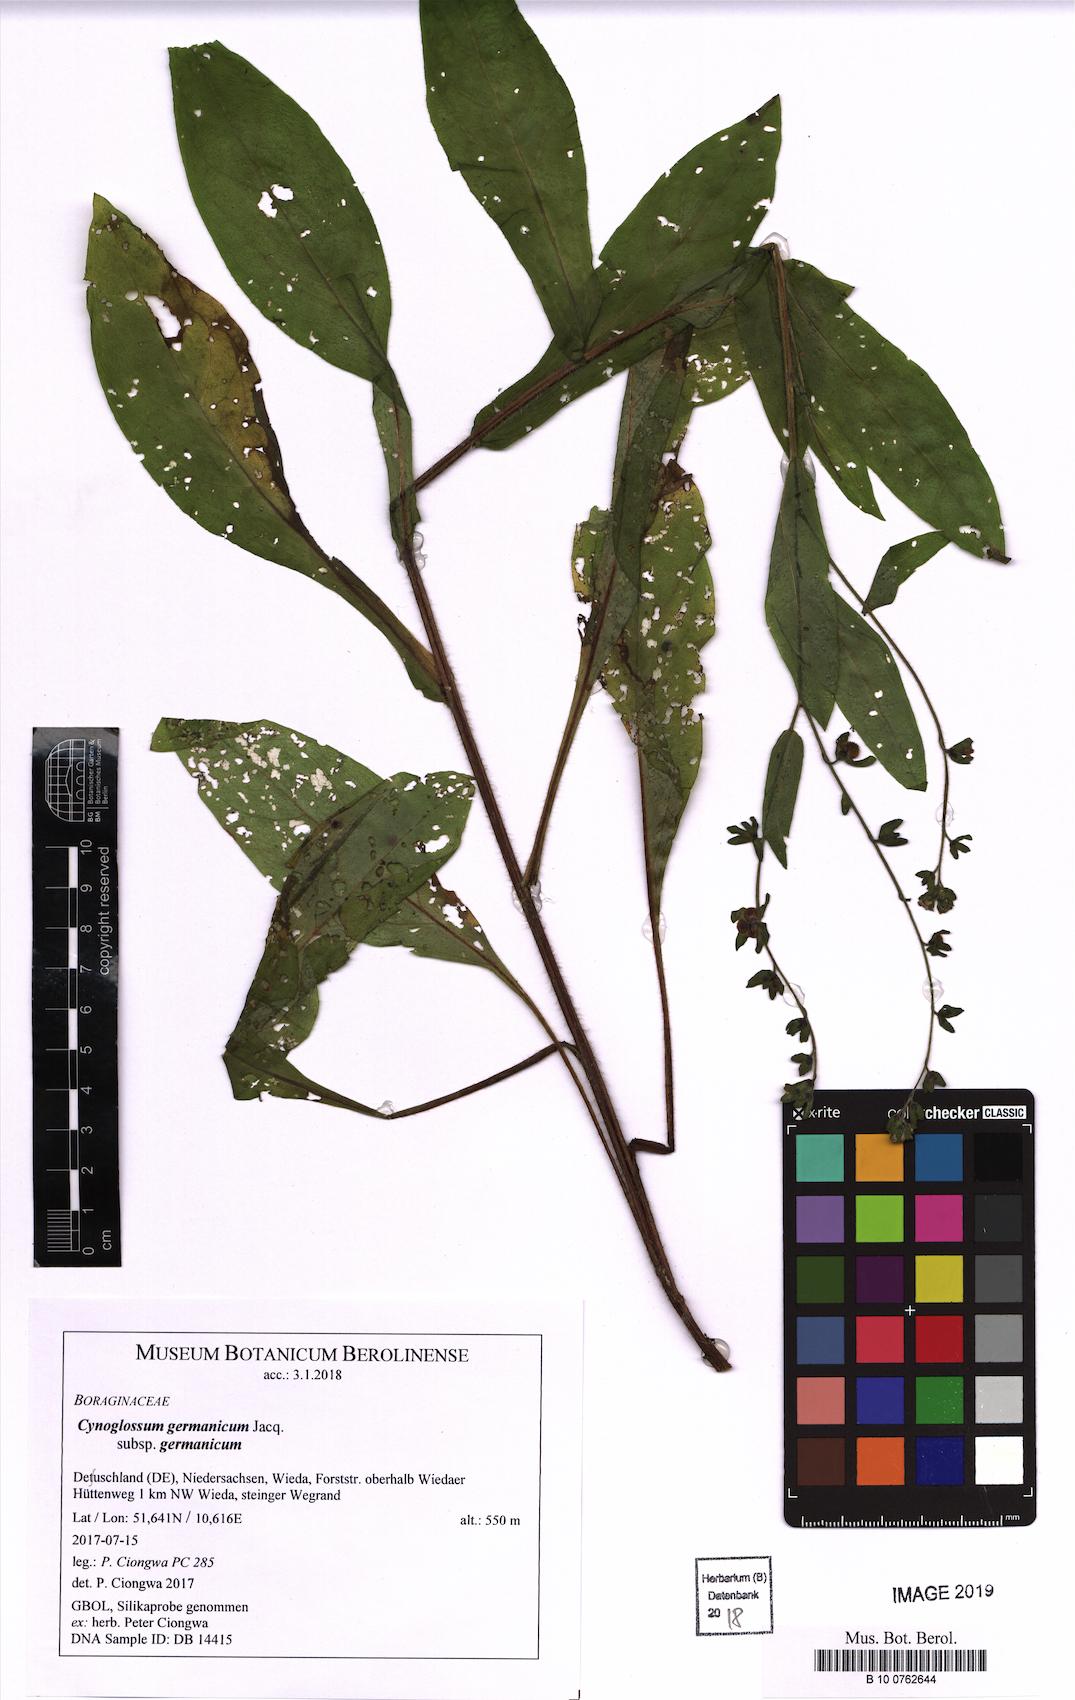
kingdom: Plantae
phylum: Tracheophyta
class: Magnoliopsida
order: Boraginales
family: Boraginaceae
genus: Cynoglossum
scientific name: Cynoglossum germanicum
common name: Green hound's-tongue
